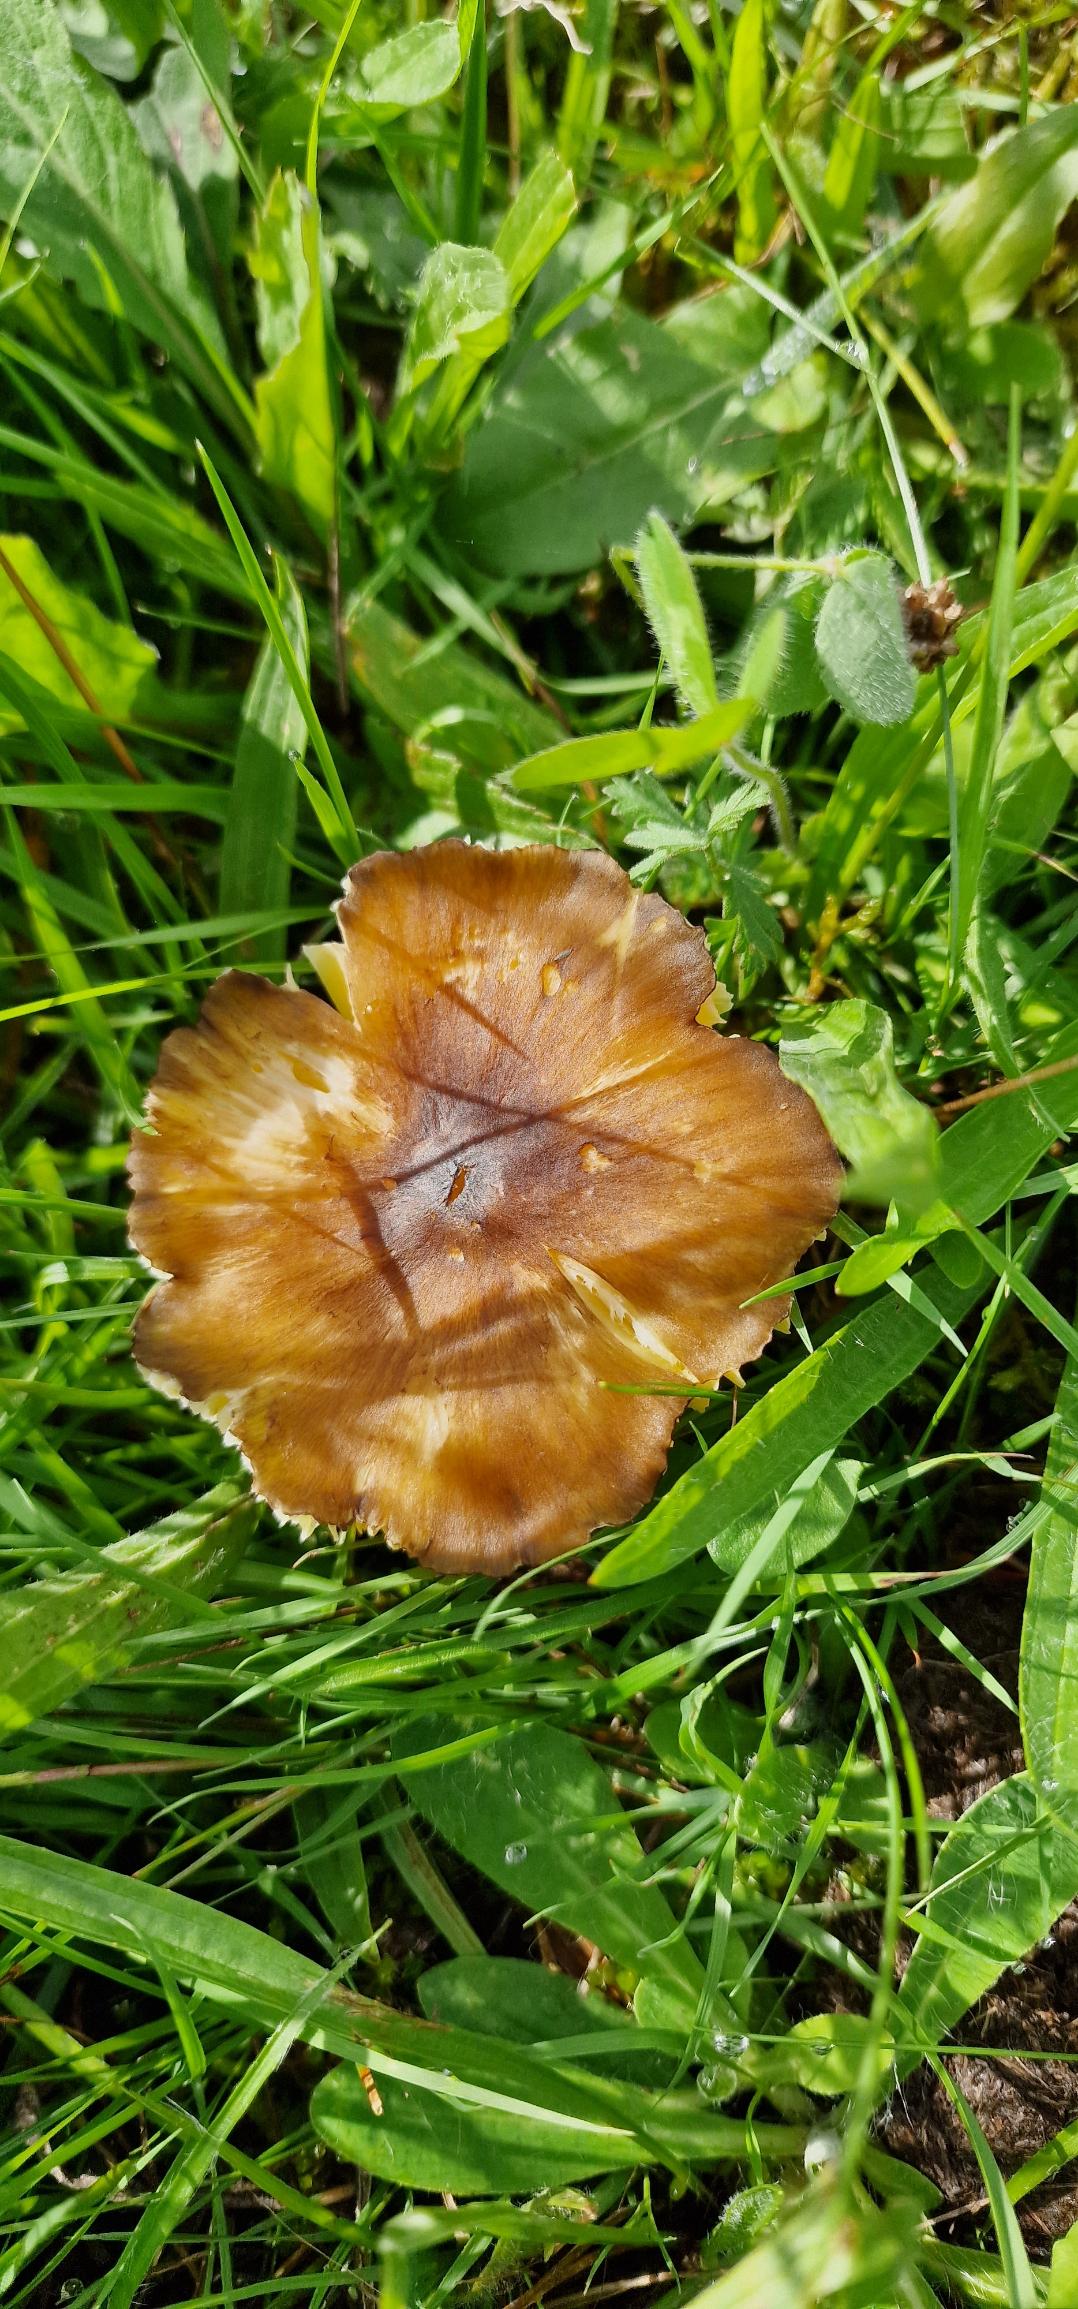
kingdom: Fungi
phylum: Basidiomycota
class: Agaricomycetes
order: Agaricales
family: Hygrophoraceae
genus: Hygrocybe
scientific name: Hygrocybe spadicea
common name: Daddelbrun vokshat
